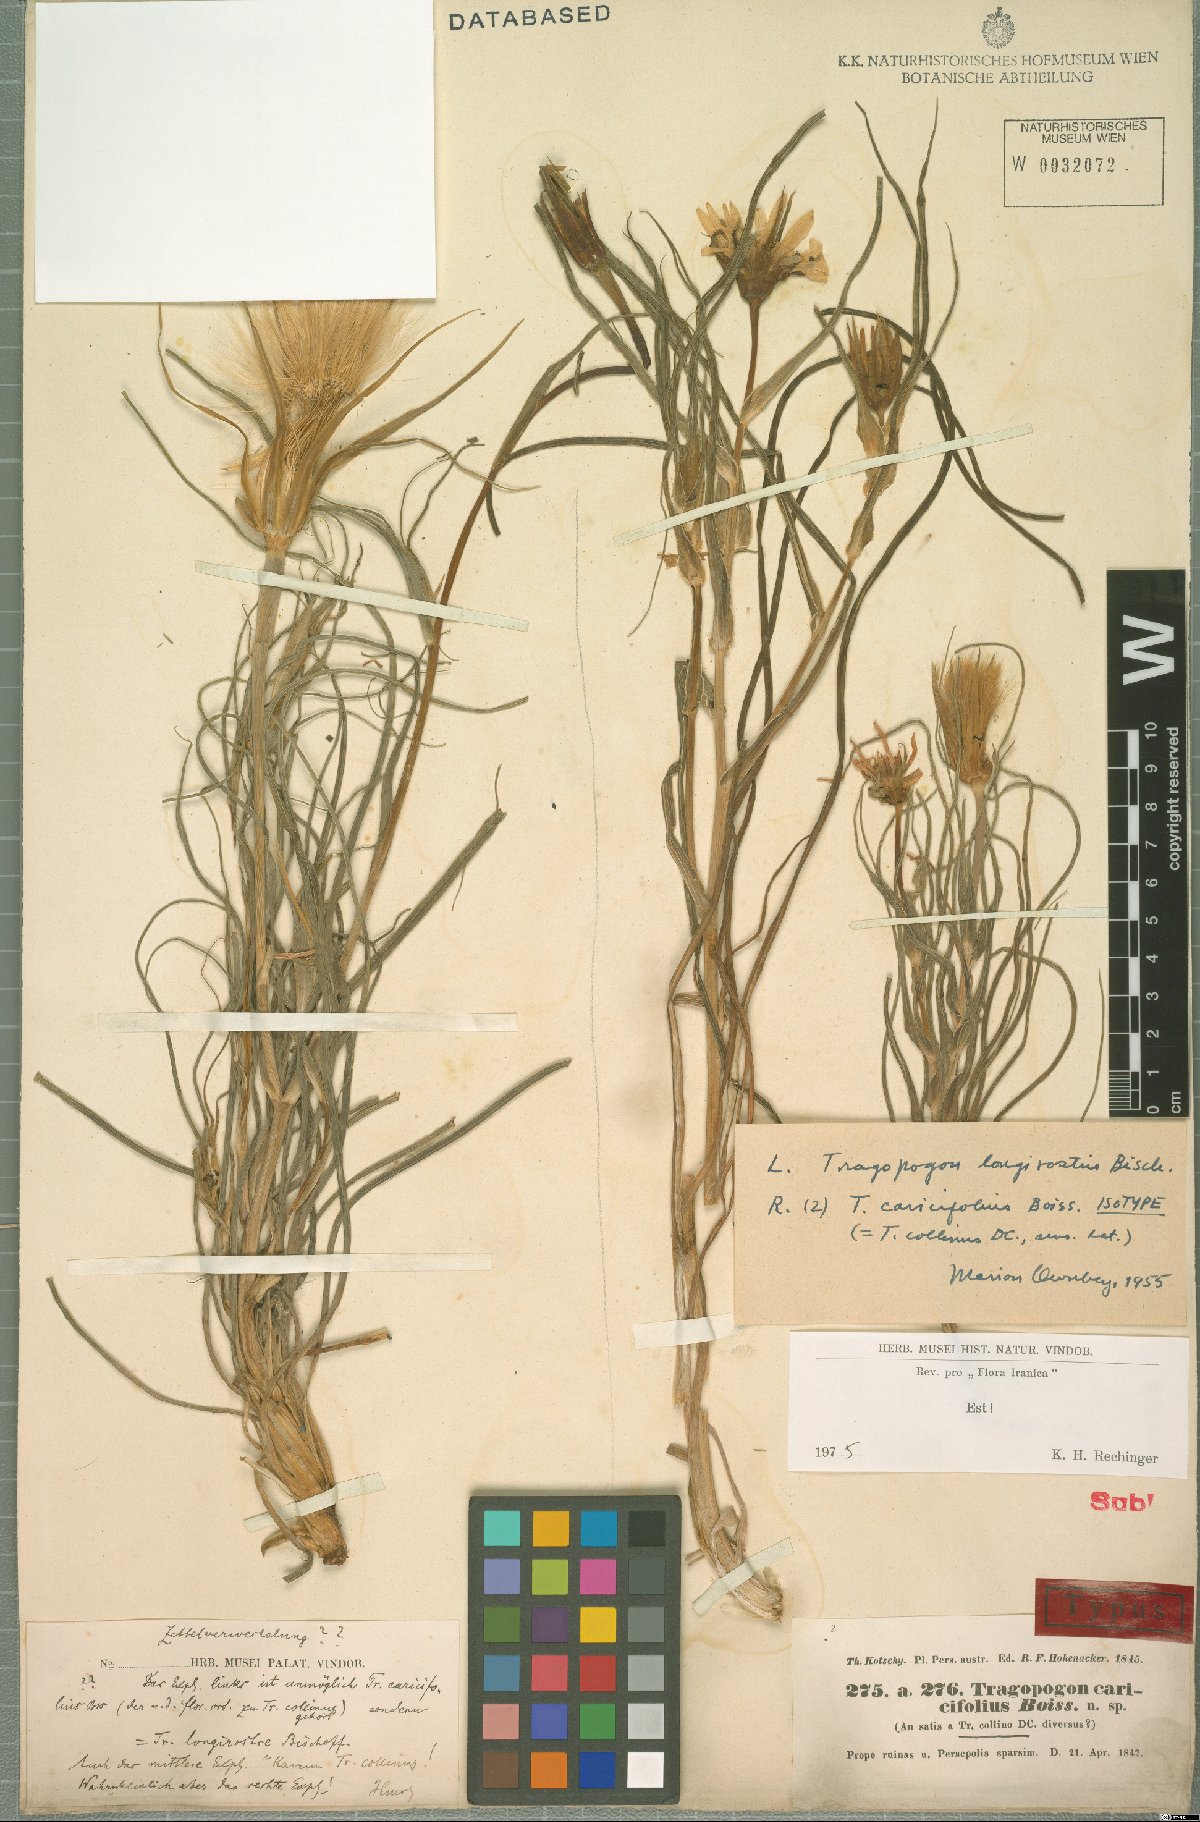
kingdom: Plantae
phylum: Tracheophyta
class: Magnoliopsida
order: Asterales
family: Asteraceae
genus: Tragopogon
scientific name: Tragopogon caricifolius
